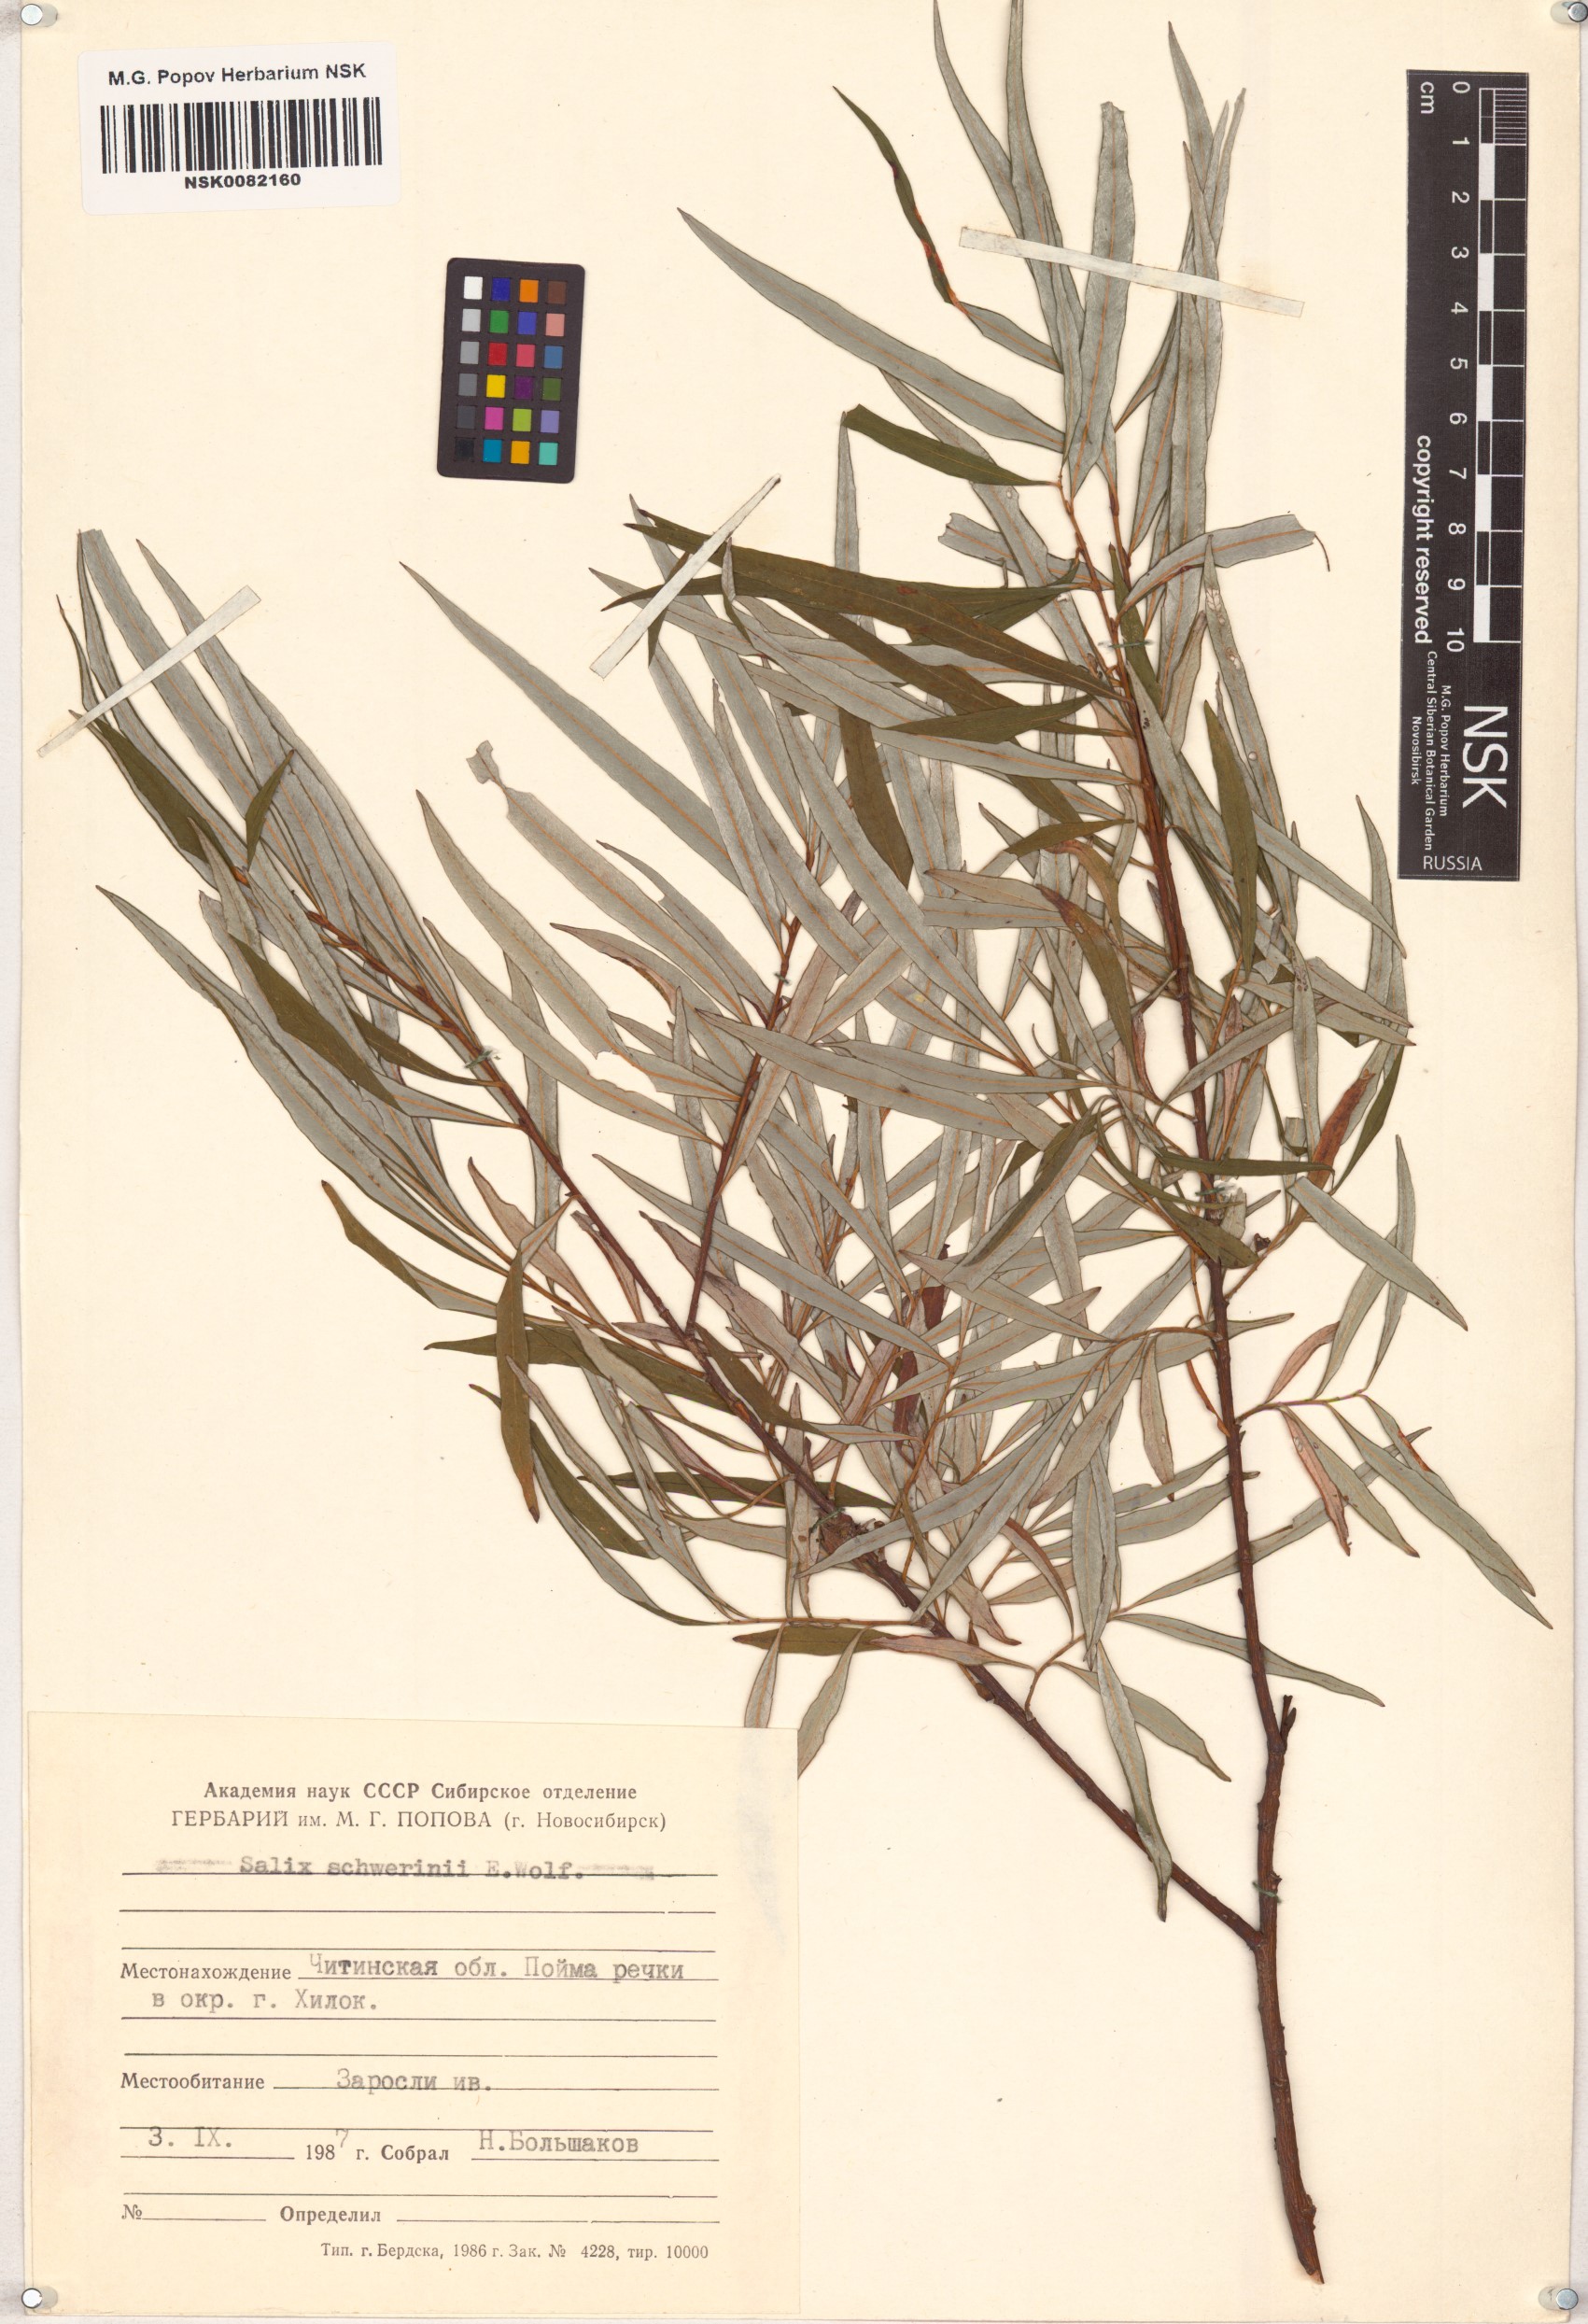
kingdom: Plantae
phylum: Tracheophyta
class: Magnoliopsida
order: Malpighiales
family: Salicaceae
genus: Salix
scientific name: Salix schwerinii
